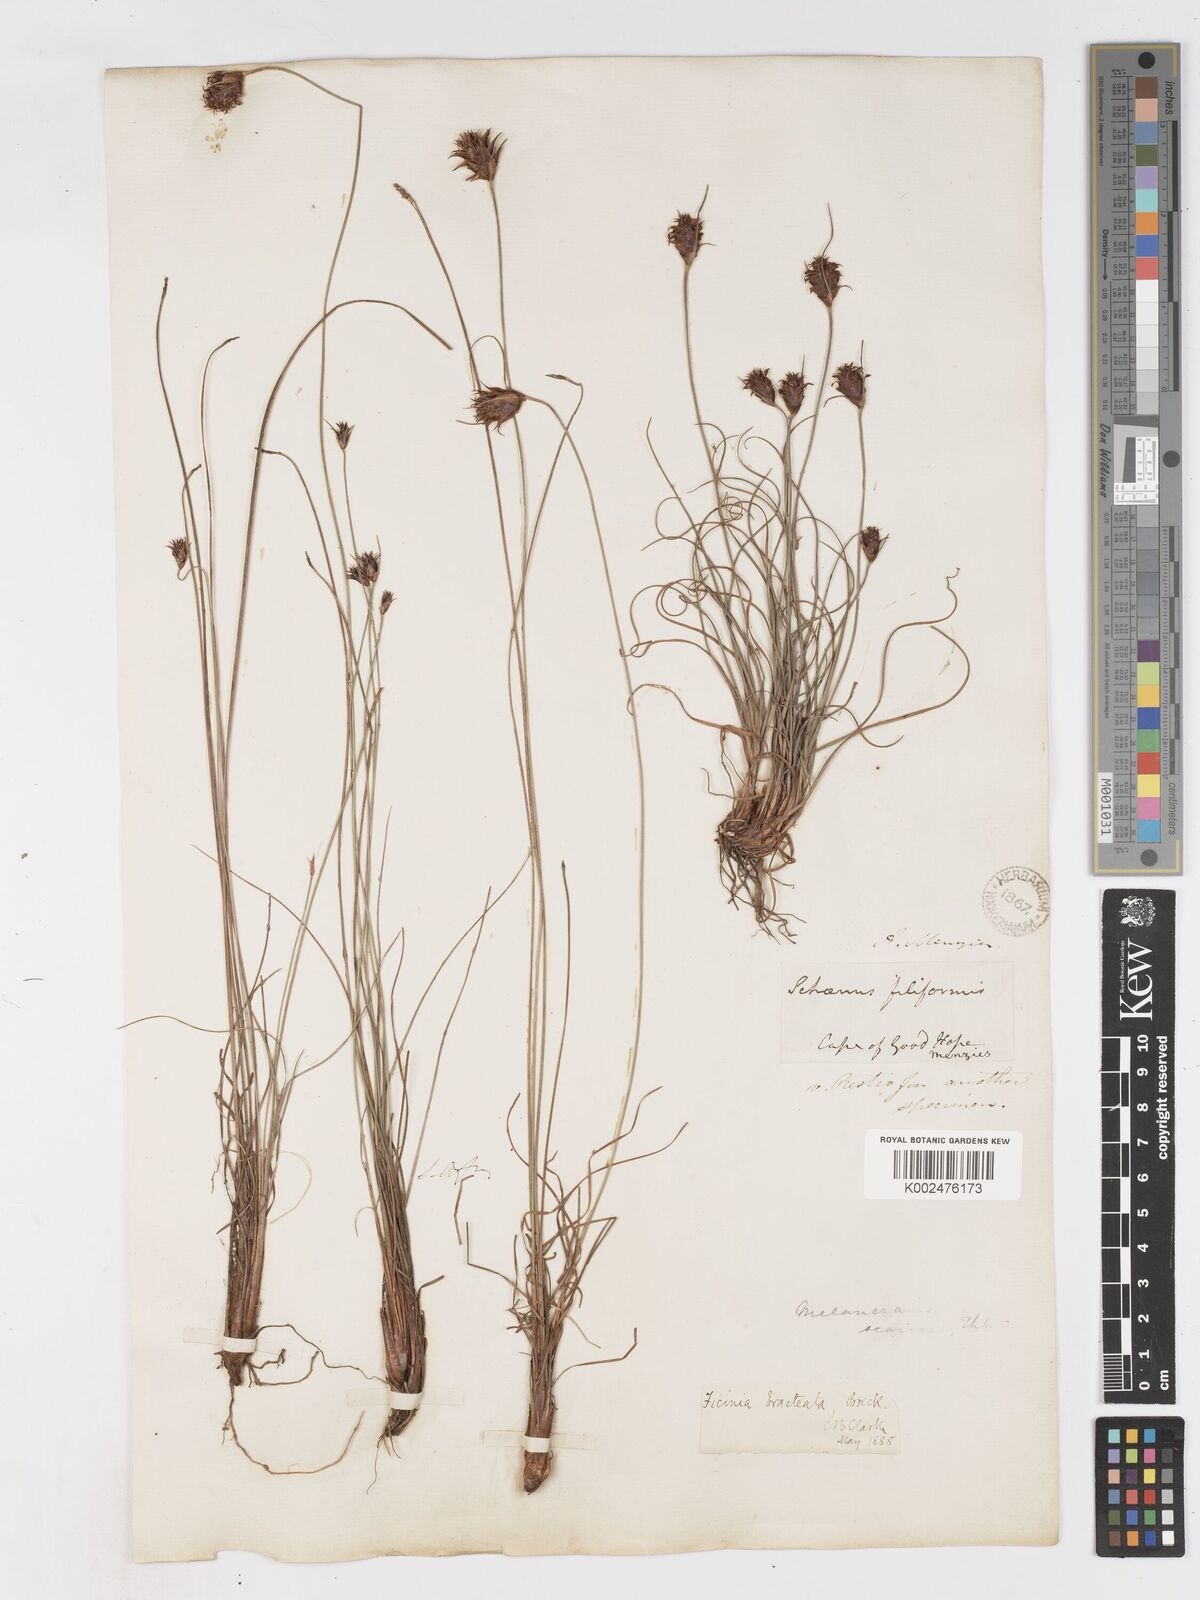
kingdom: Plantae
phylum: Tracheophyta
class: Liliopsida
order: Poales
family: Cyperaceae
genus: Ficinia
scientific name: Ficinia nigrescens
